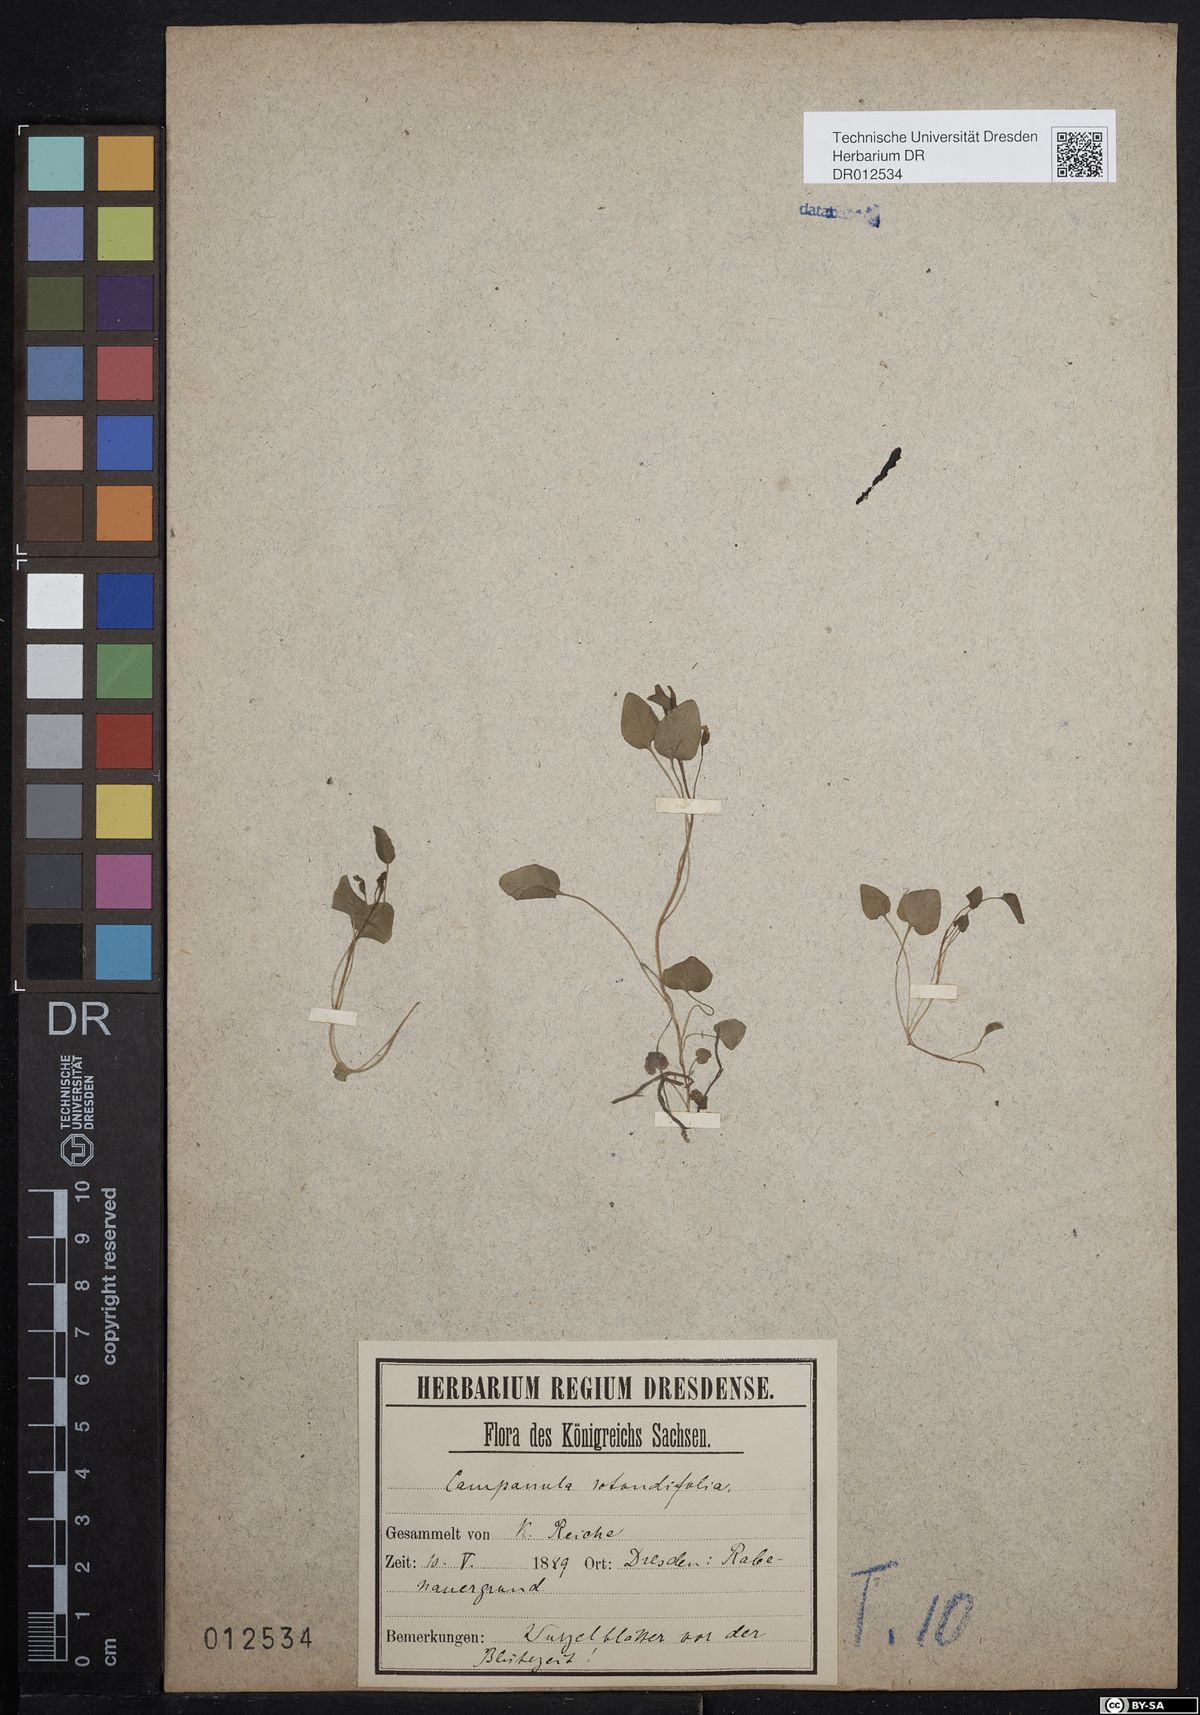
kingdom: Plantae
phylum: Tracheophyta
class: Magnoliopsida
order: Asterales
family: Campanulaceae
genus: Campanula
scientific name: Campanula rotundifolia
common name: Harebell
